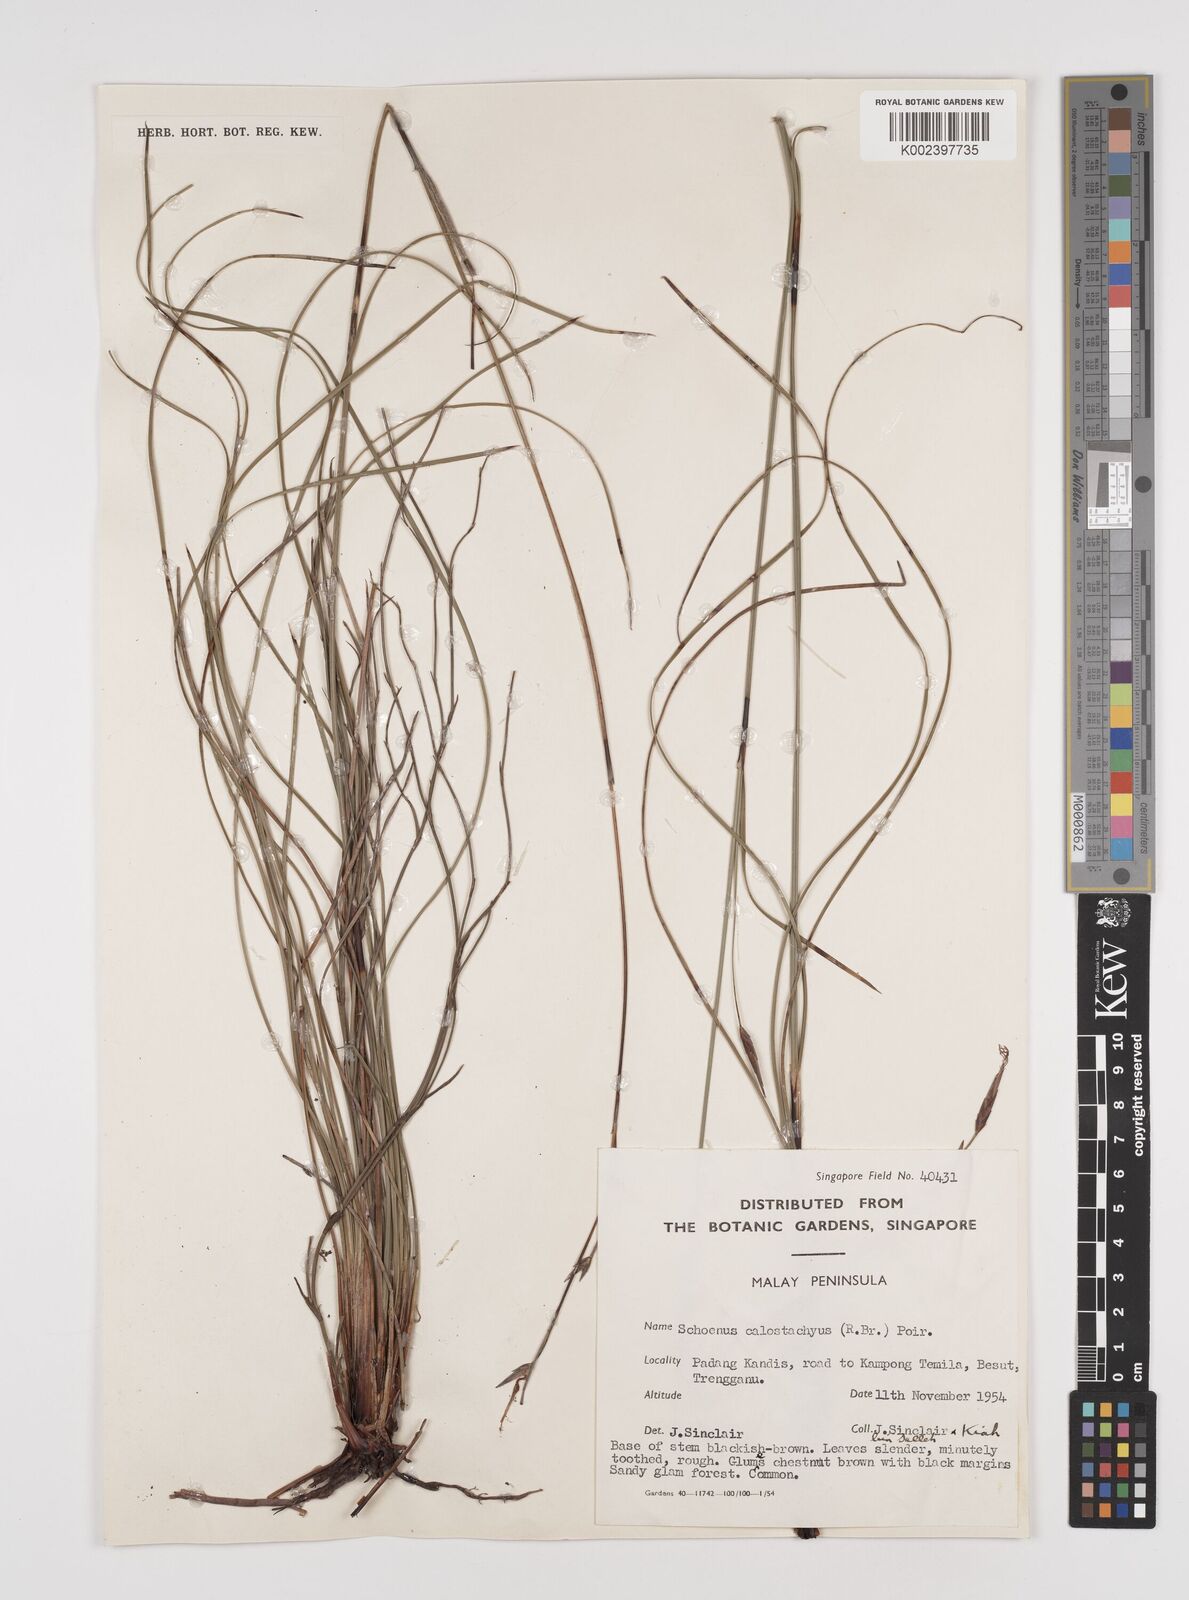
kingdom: Plantae
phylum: Tracheophyta
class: Liliopsida
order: Poales
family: Cyperaceae
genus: Schoenus
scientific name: Schoenus calostachyus
